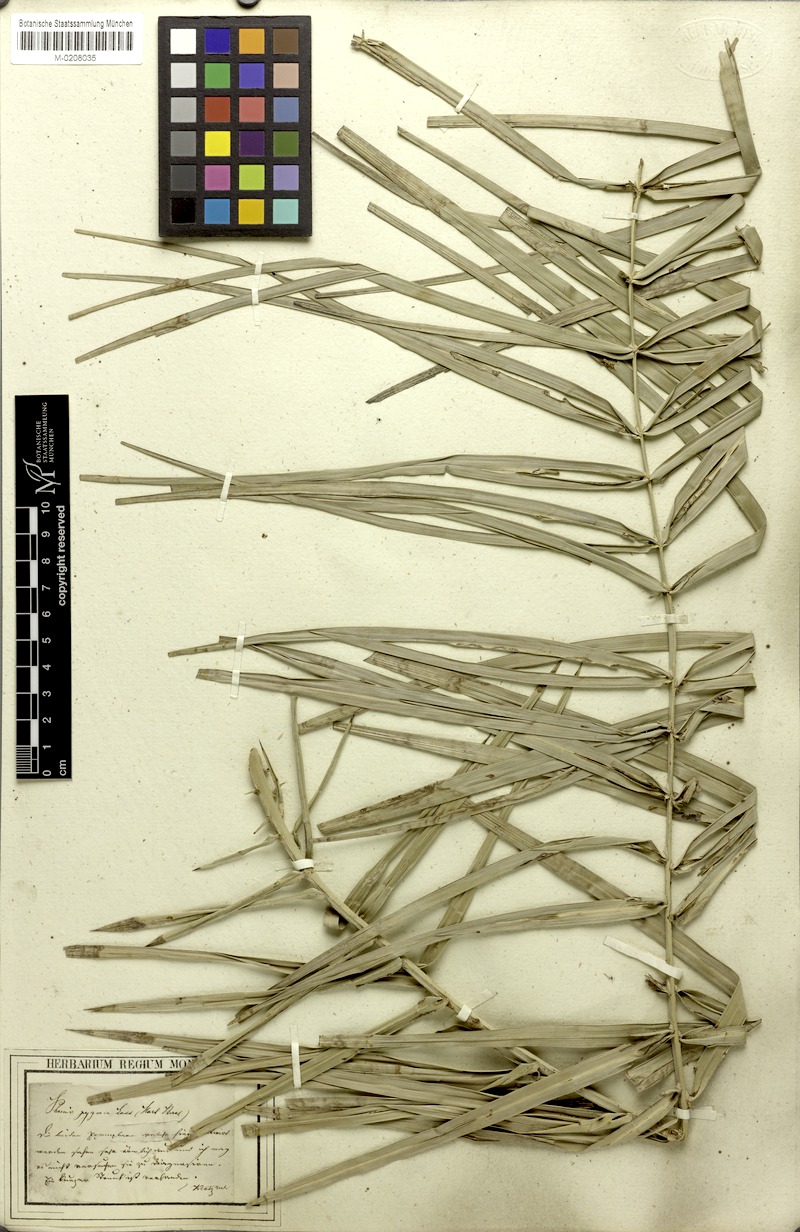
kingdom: Plantae
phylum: Tracheophyta
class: Liliopsida
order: Arecales
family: Arecaceae
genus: Phoenix
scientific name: Phoenix loureiroi
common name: Loureiro's palm
